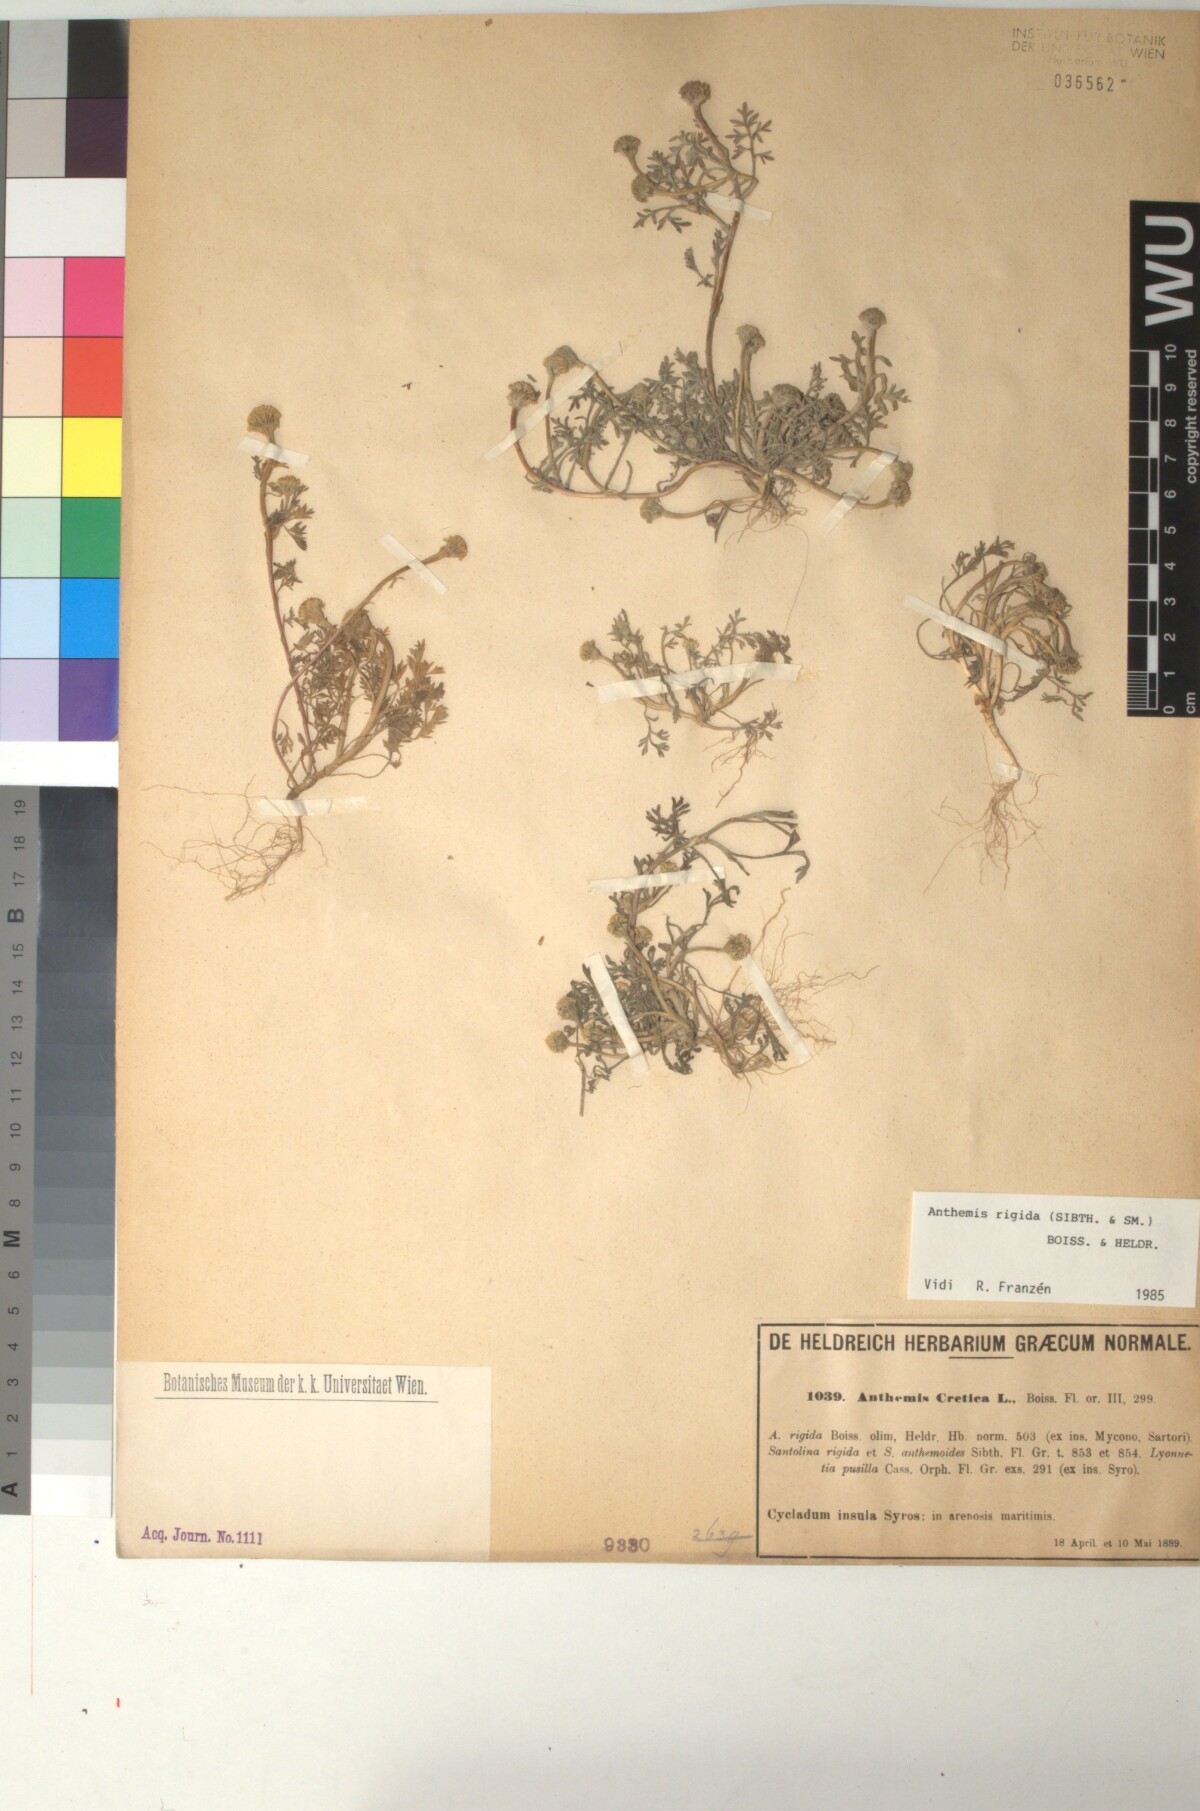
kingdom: Plantae
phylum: Tracheophyta
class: Magnoliopsida
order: Asterales
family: Asteraceae
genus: Anthemis
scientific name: Anthemis rigida
